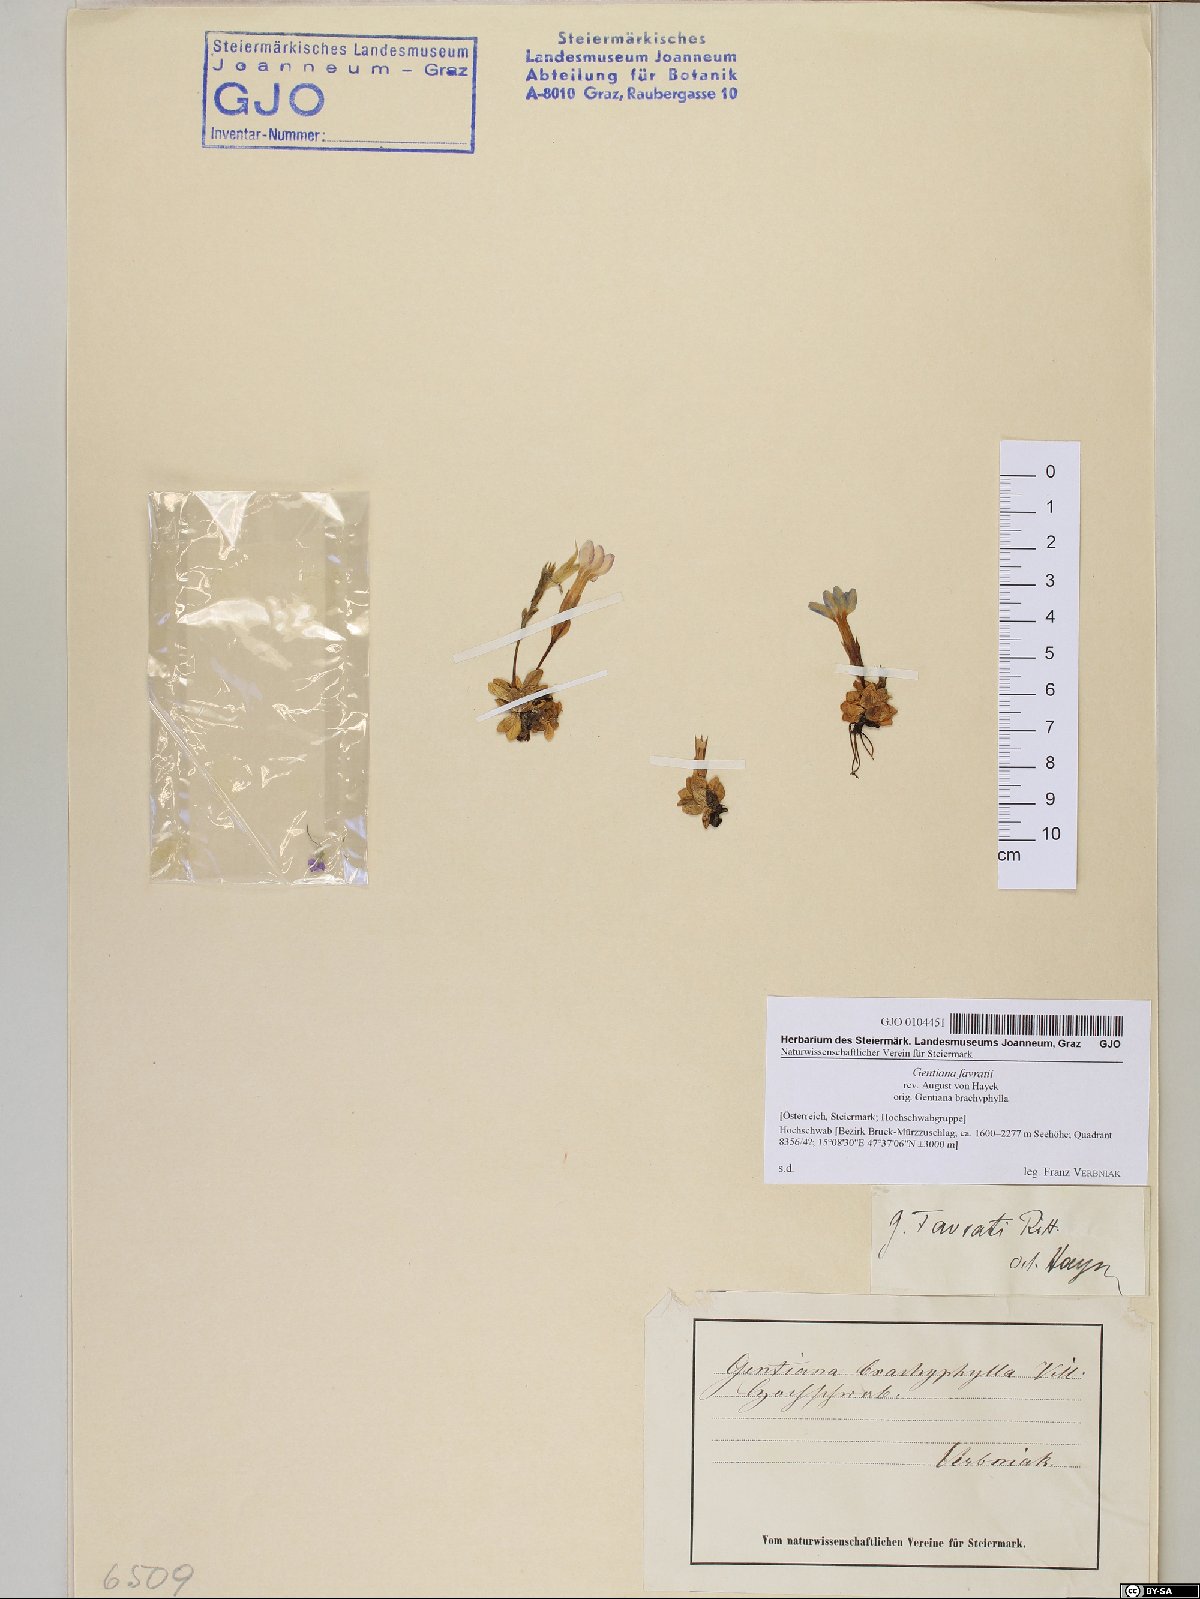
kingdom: Plantae
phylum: Tracheophyta
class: Magnoliopsida
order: Gentianales
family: Gentianaceae
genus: Gentiana
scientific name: Gentiana orbicularis
